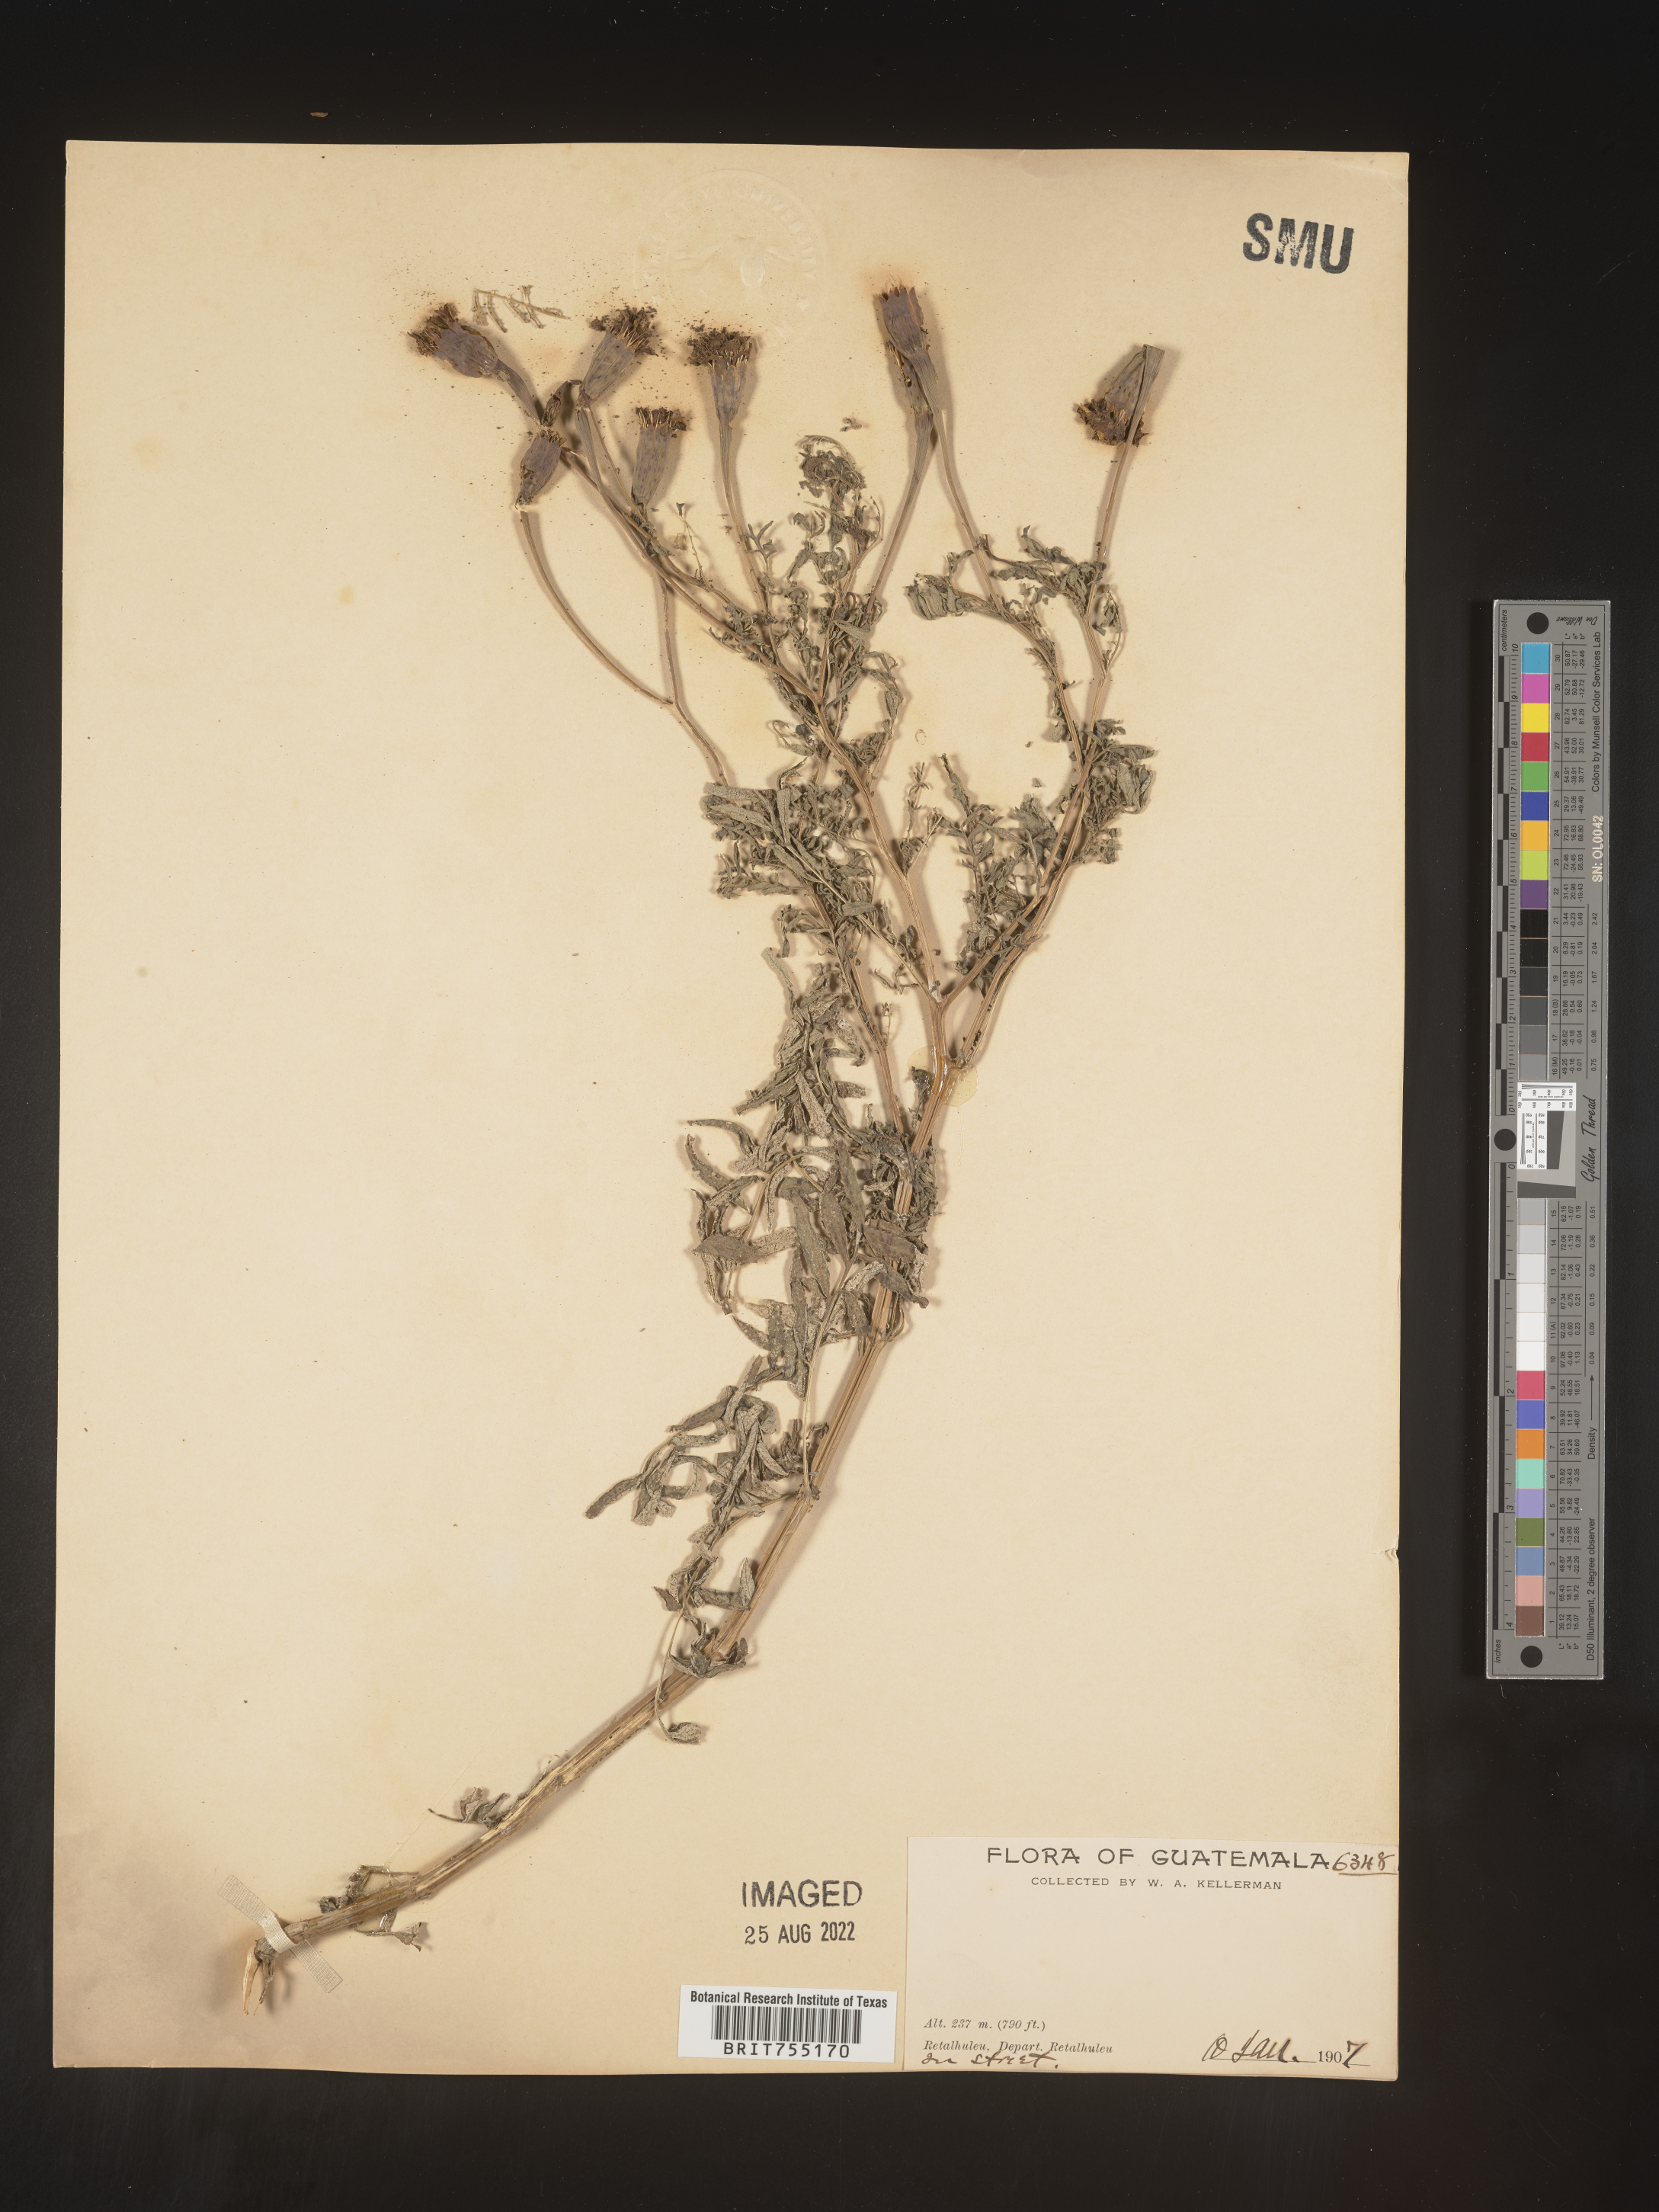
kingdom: Plantae
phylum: Tracheophyta
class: Magnoliopsida
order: Asterales
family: Asteraceae
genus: Tagetes
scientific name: Tagetes
